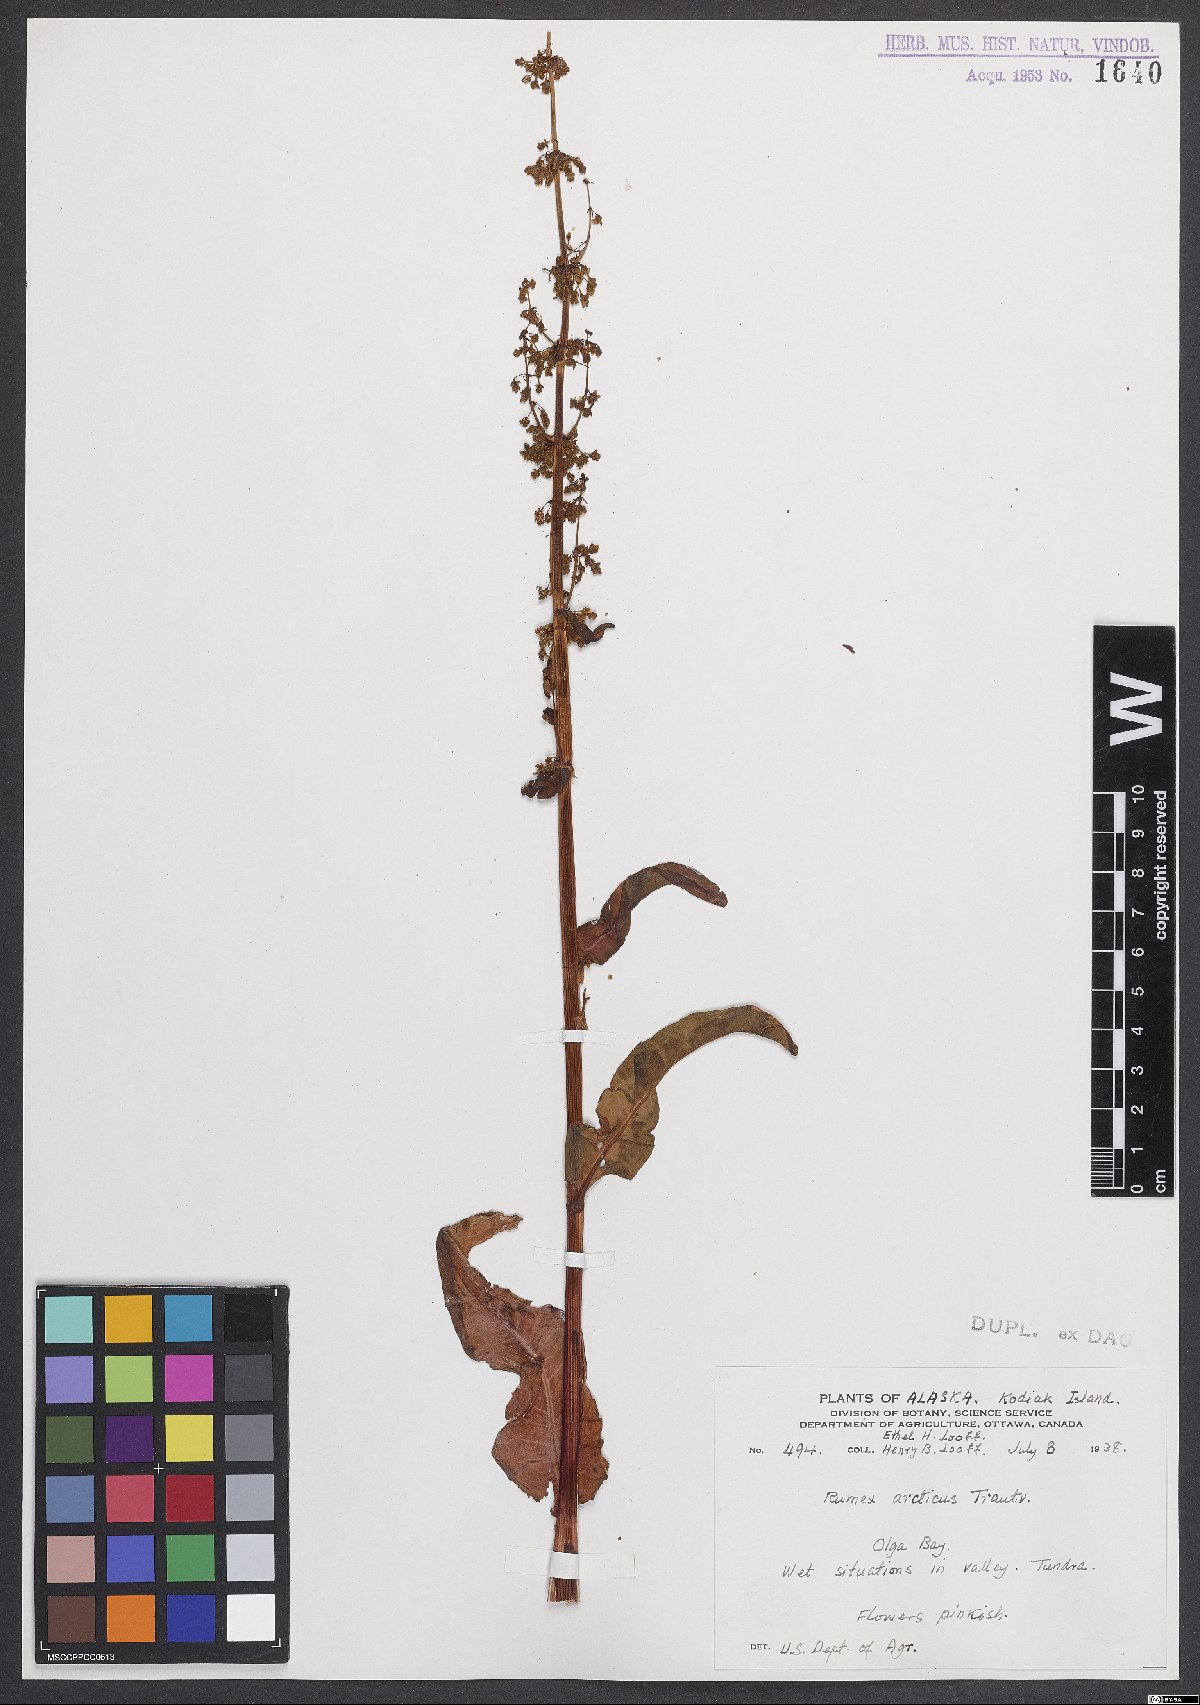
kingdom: Plantae
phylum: Tracheophyta
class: Magnoliopsida
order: Caryophyllales
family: Polygonaceae
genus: Rumex
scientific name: Rumex arcticus
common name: Arctic dock
